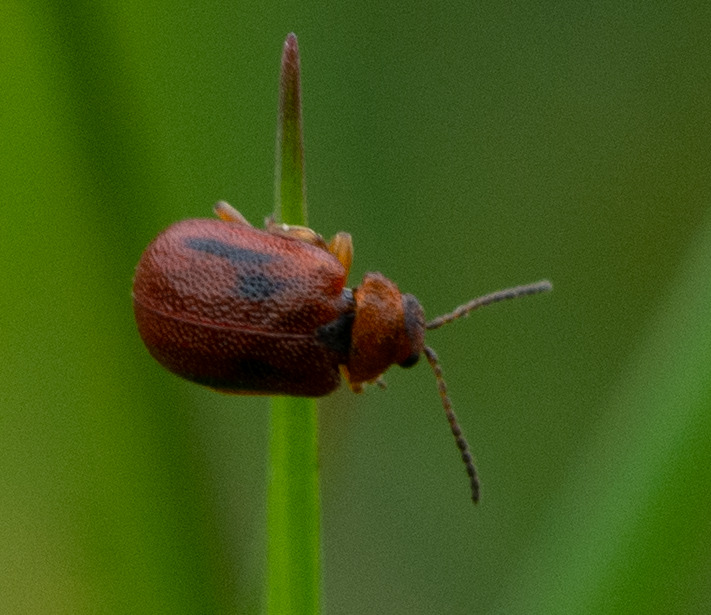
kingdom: Animalia
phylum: Arthropoda
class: Insecta
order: Coleoptera
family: Chrysomelidae
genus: Lochmaea
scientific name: Lochmaea crataegi
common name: Tjørnebladbille
